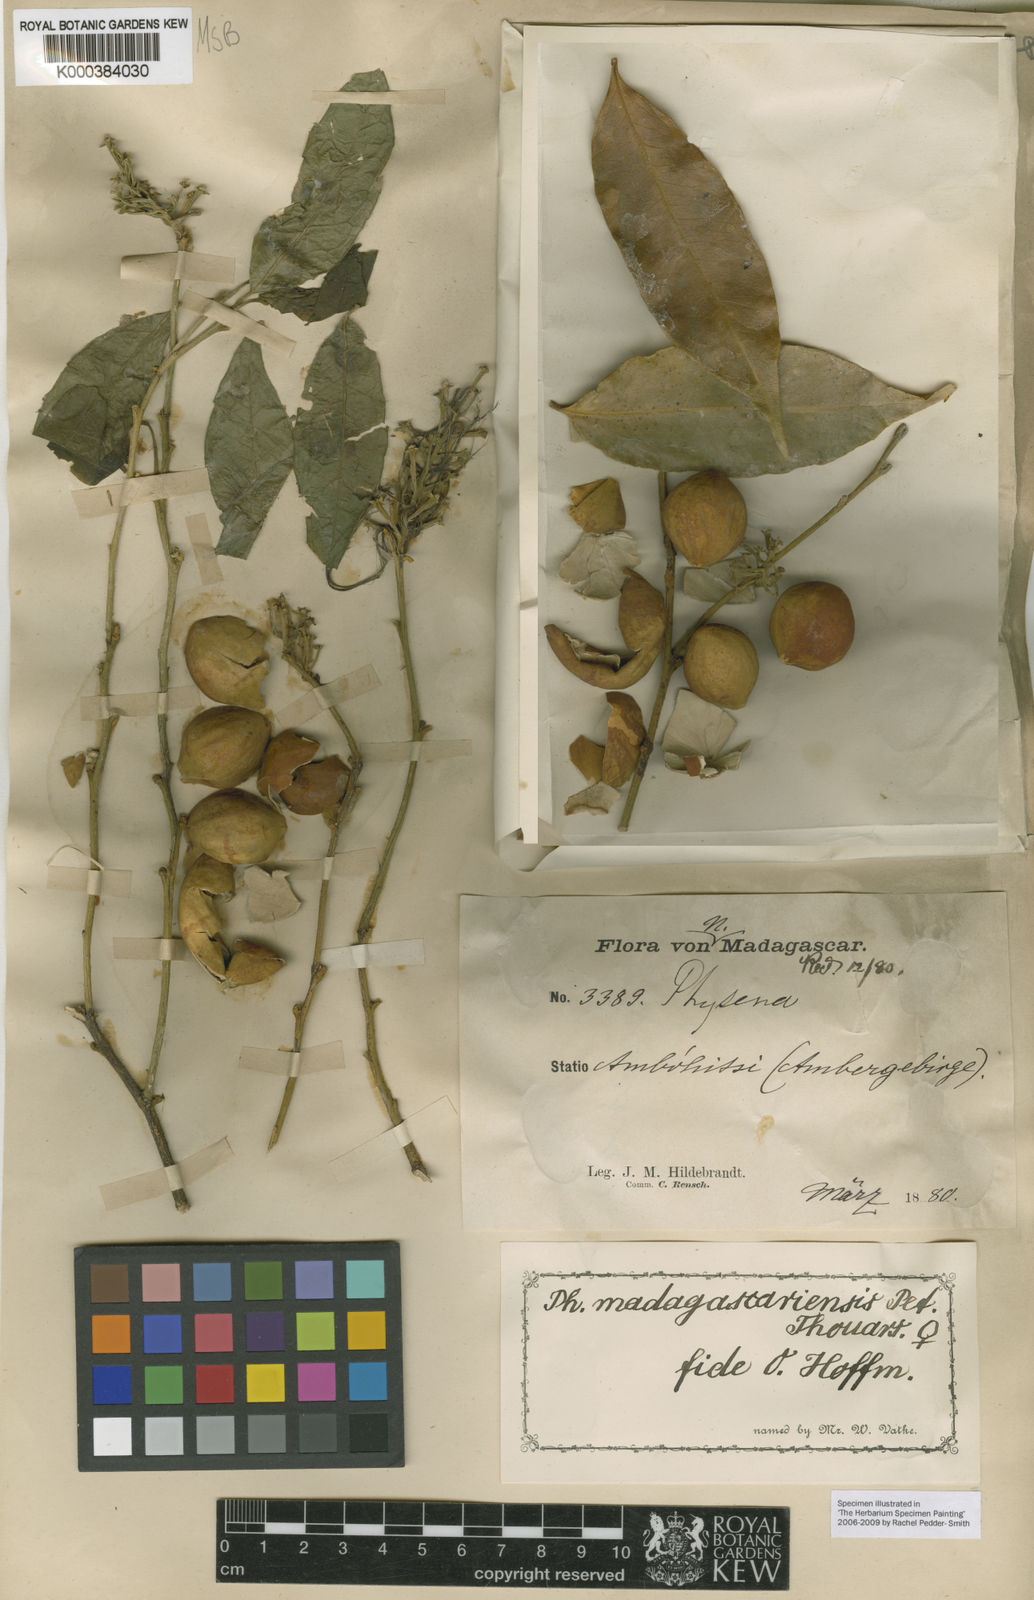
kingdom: Plantae
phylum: Tracheophyta
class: Magnoliopsida
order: Caryophyllales
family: Physenaceae
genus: Physena
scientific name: Physena madagascariensis
